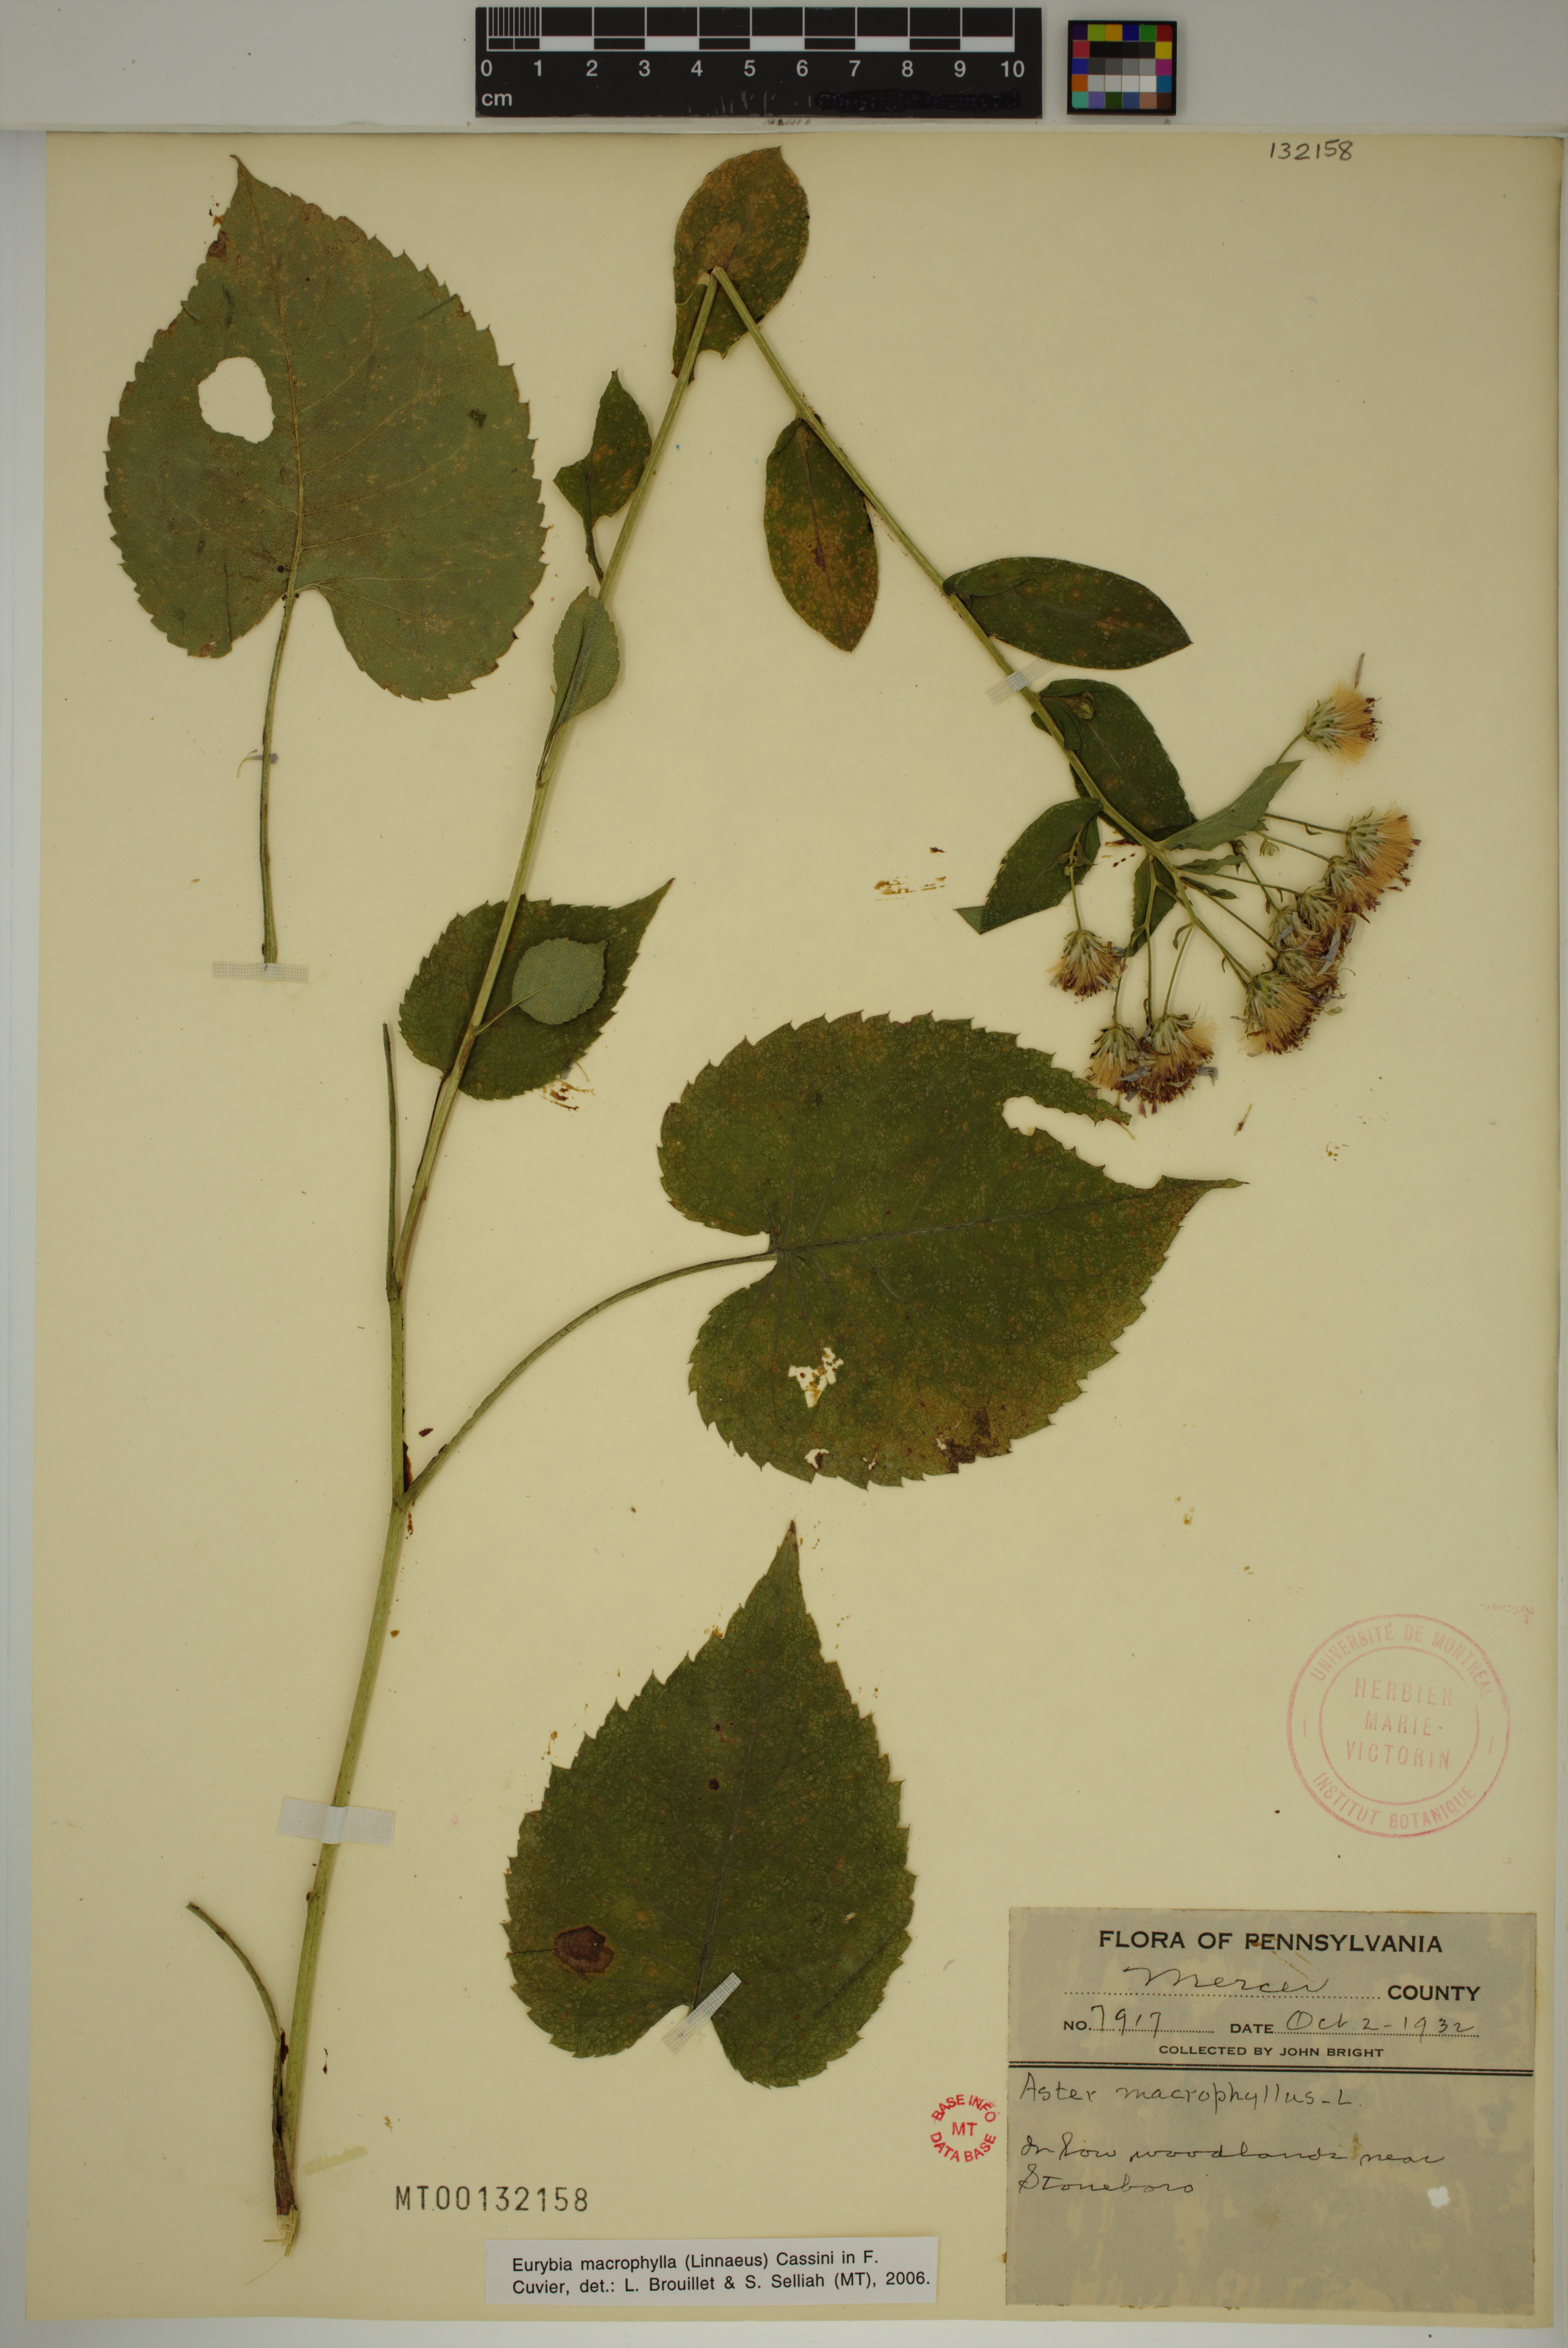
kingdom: Plantae
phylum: Tracheophyta
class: Magnoliopsida
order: Asterales
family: Asteraceae
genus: Eurybia
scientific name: Eurybia macrophylla
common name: Big-leaved aster
